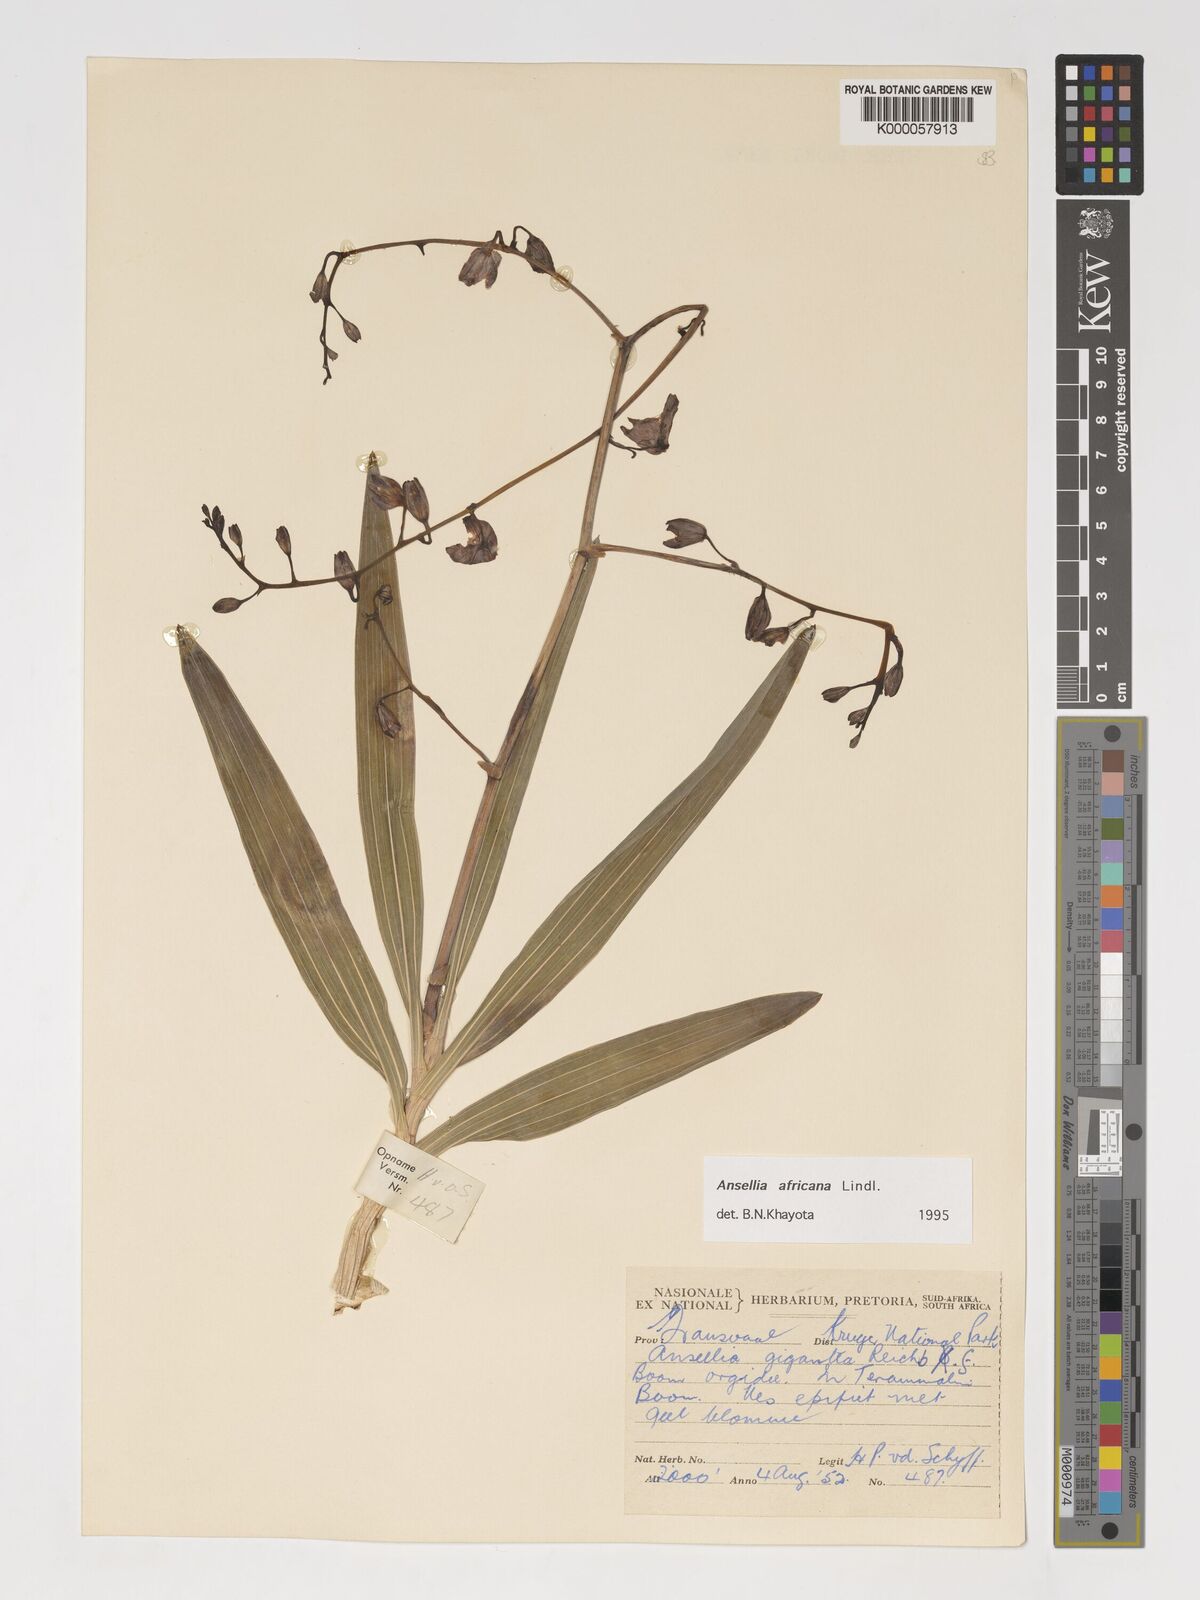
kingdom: Plantae
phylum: Tracheophyta
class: Liliopsida
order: Asparagales
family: Orchidaceae
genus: Ansellia
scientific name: Ansellia africana
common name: African ansellia
